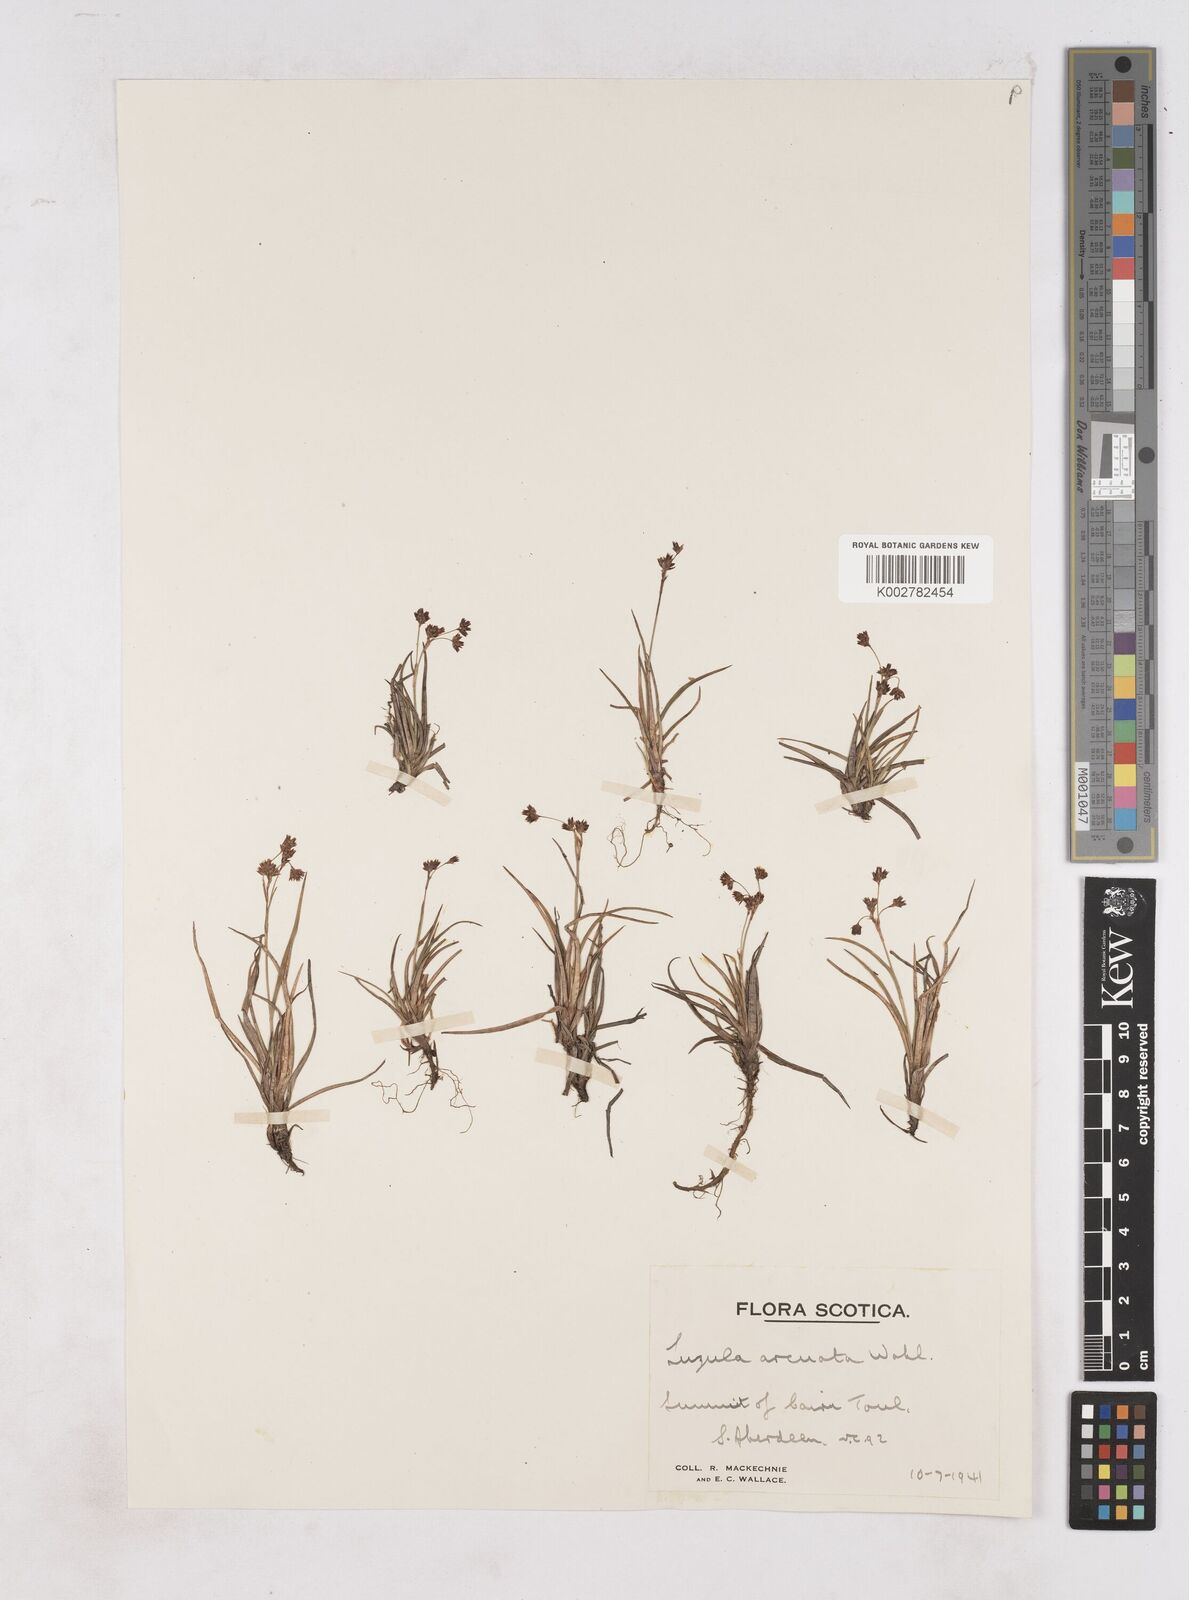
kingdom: Plantae
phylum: Tracheophyta
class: Liliopsida
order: Poales
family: Juncaceae
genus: Luzula
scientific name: Luzula arcuata
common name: Curved wood-rush
